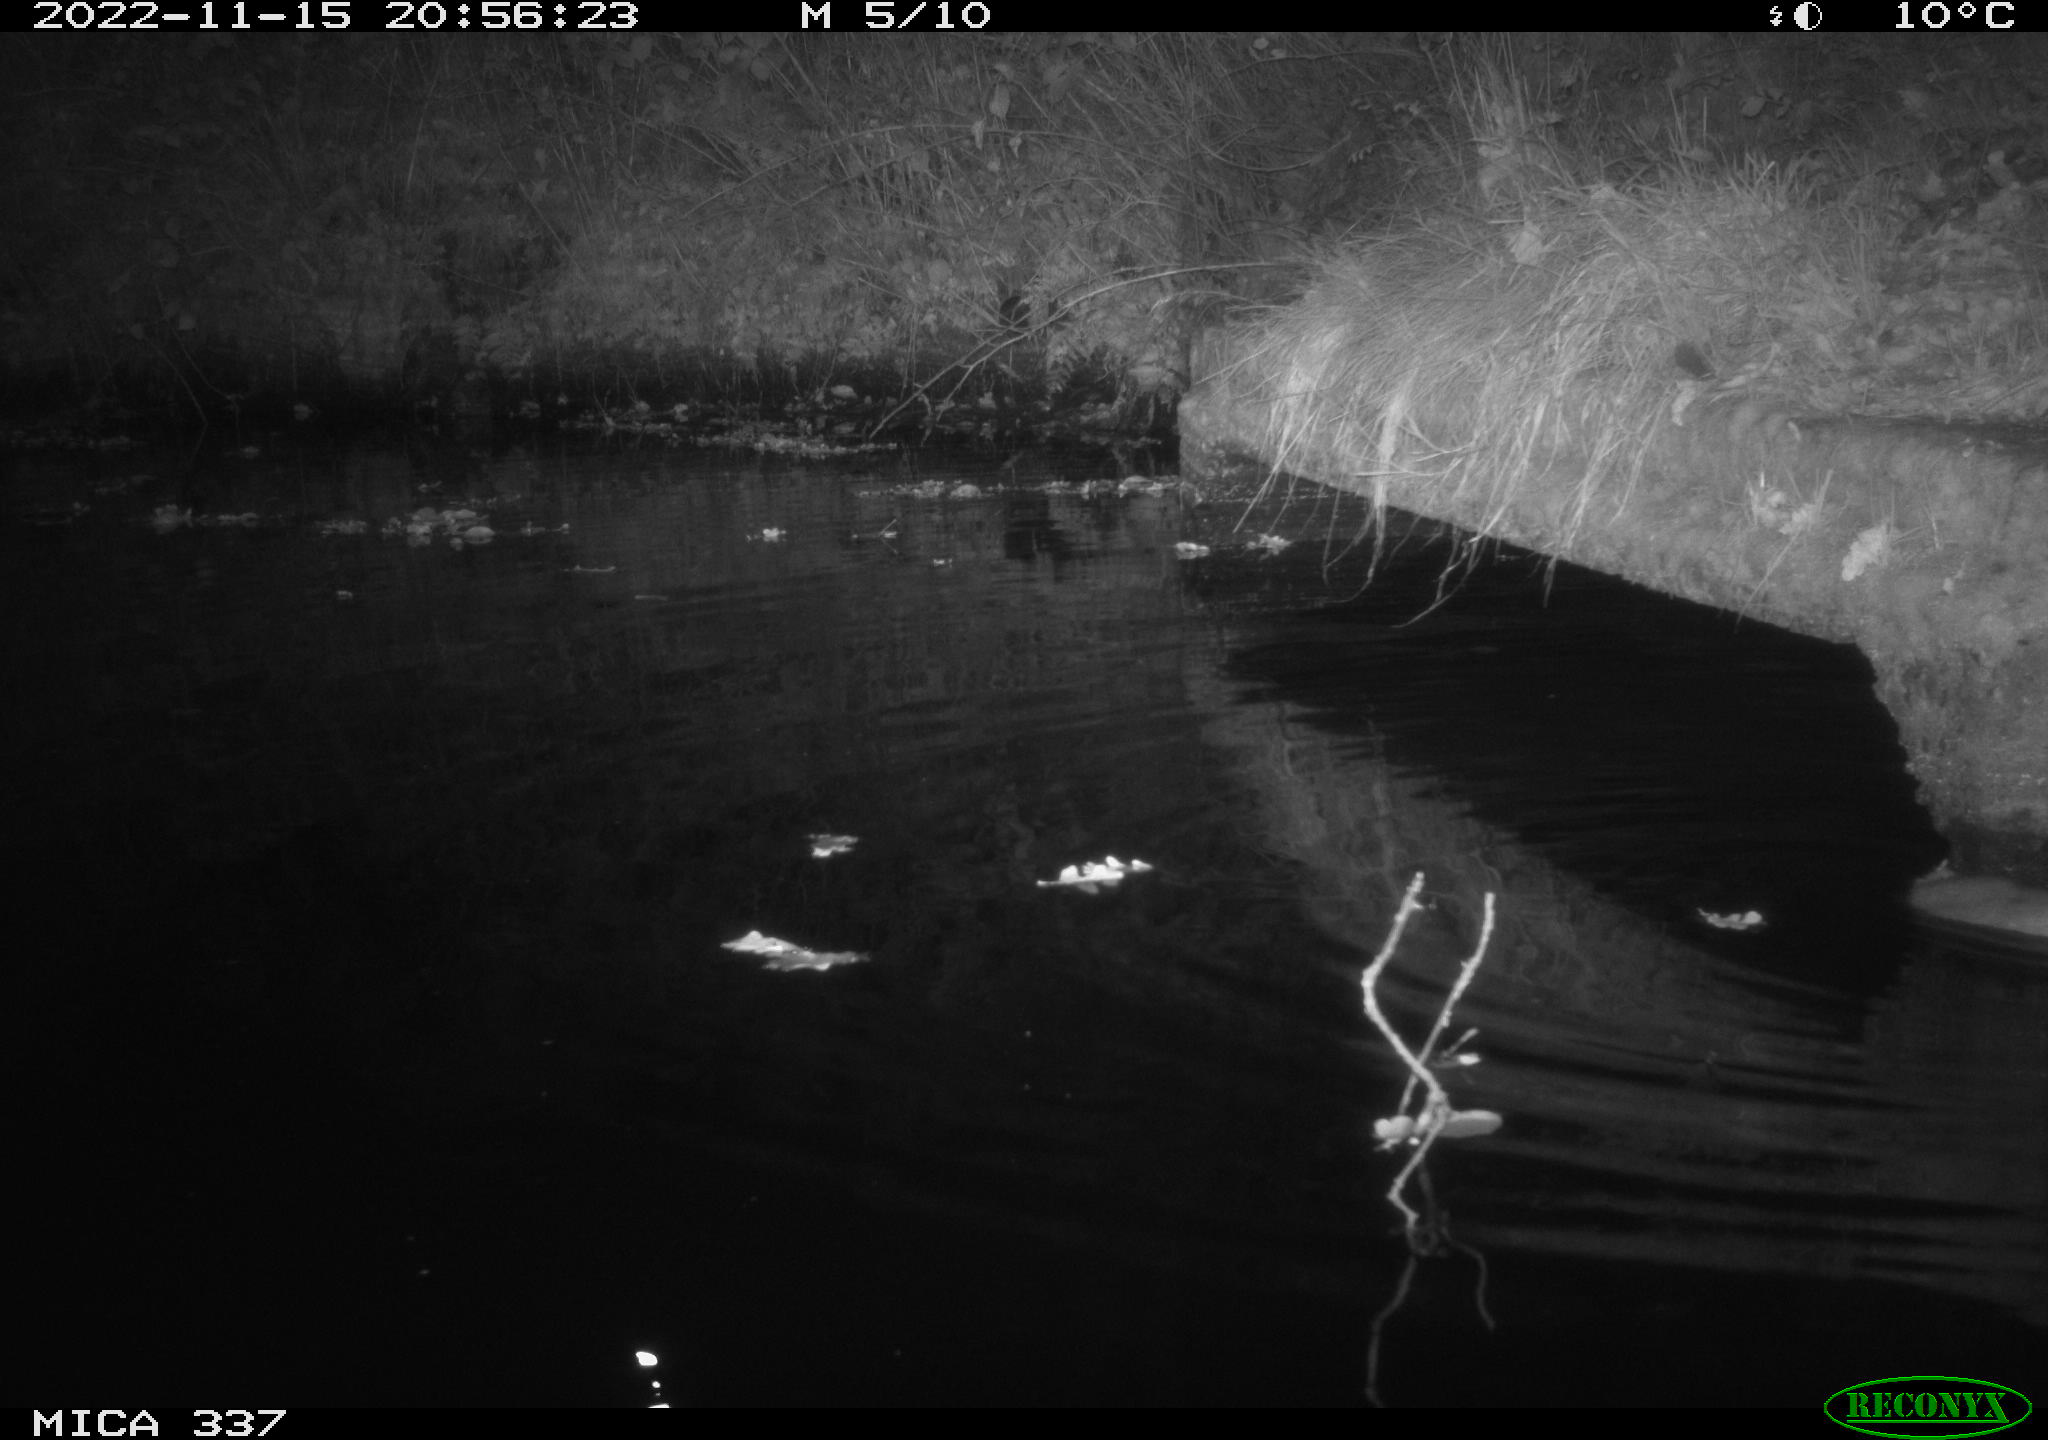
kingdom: Animalia
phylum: Chordata
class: Mammalia
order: Rodentia
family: Muridae
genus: Rattus
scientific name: Rattus norvegicus
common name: Brown rat
